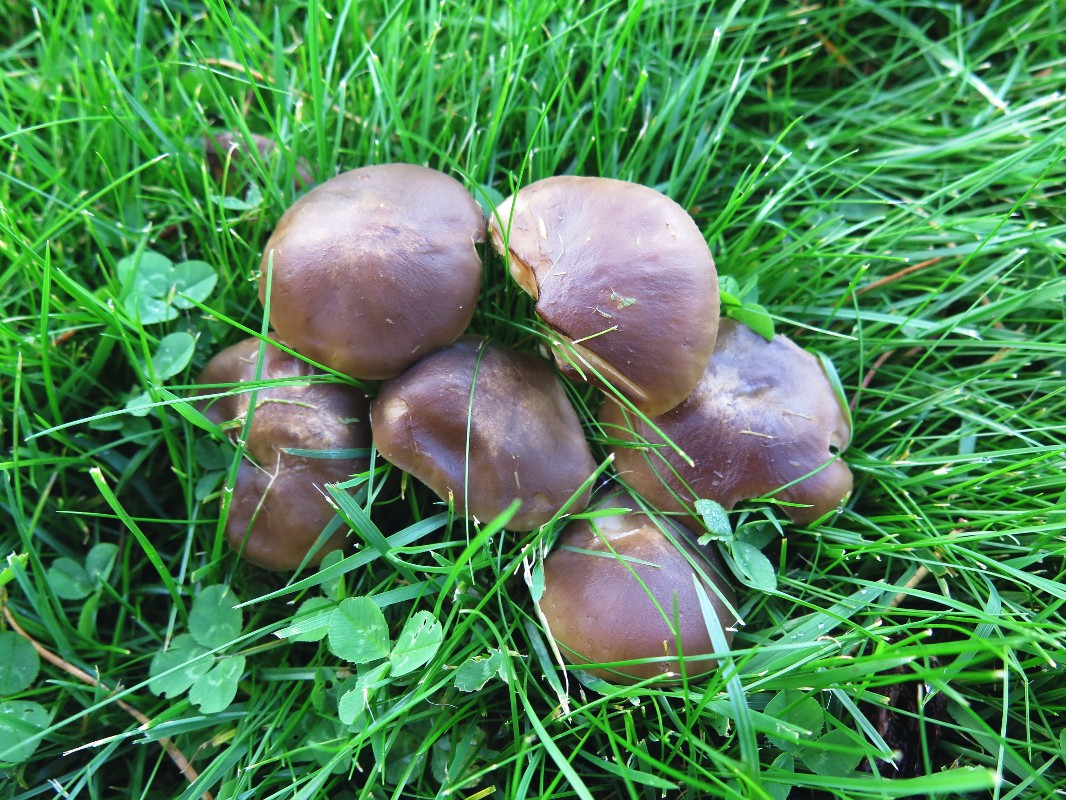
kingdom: Fungi
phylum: Basidiomycota
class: Agaricomycetes
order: Agaricales
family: Lyophyllaceae
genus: Lyophyllum
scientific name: Lyophyllum decastes
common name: røggrå gråblad
